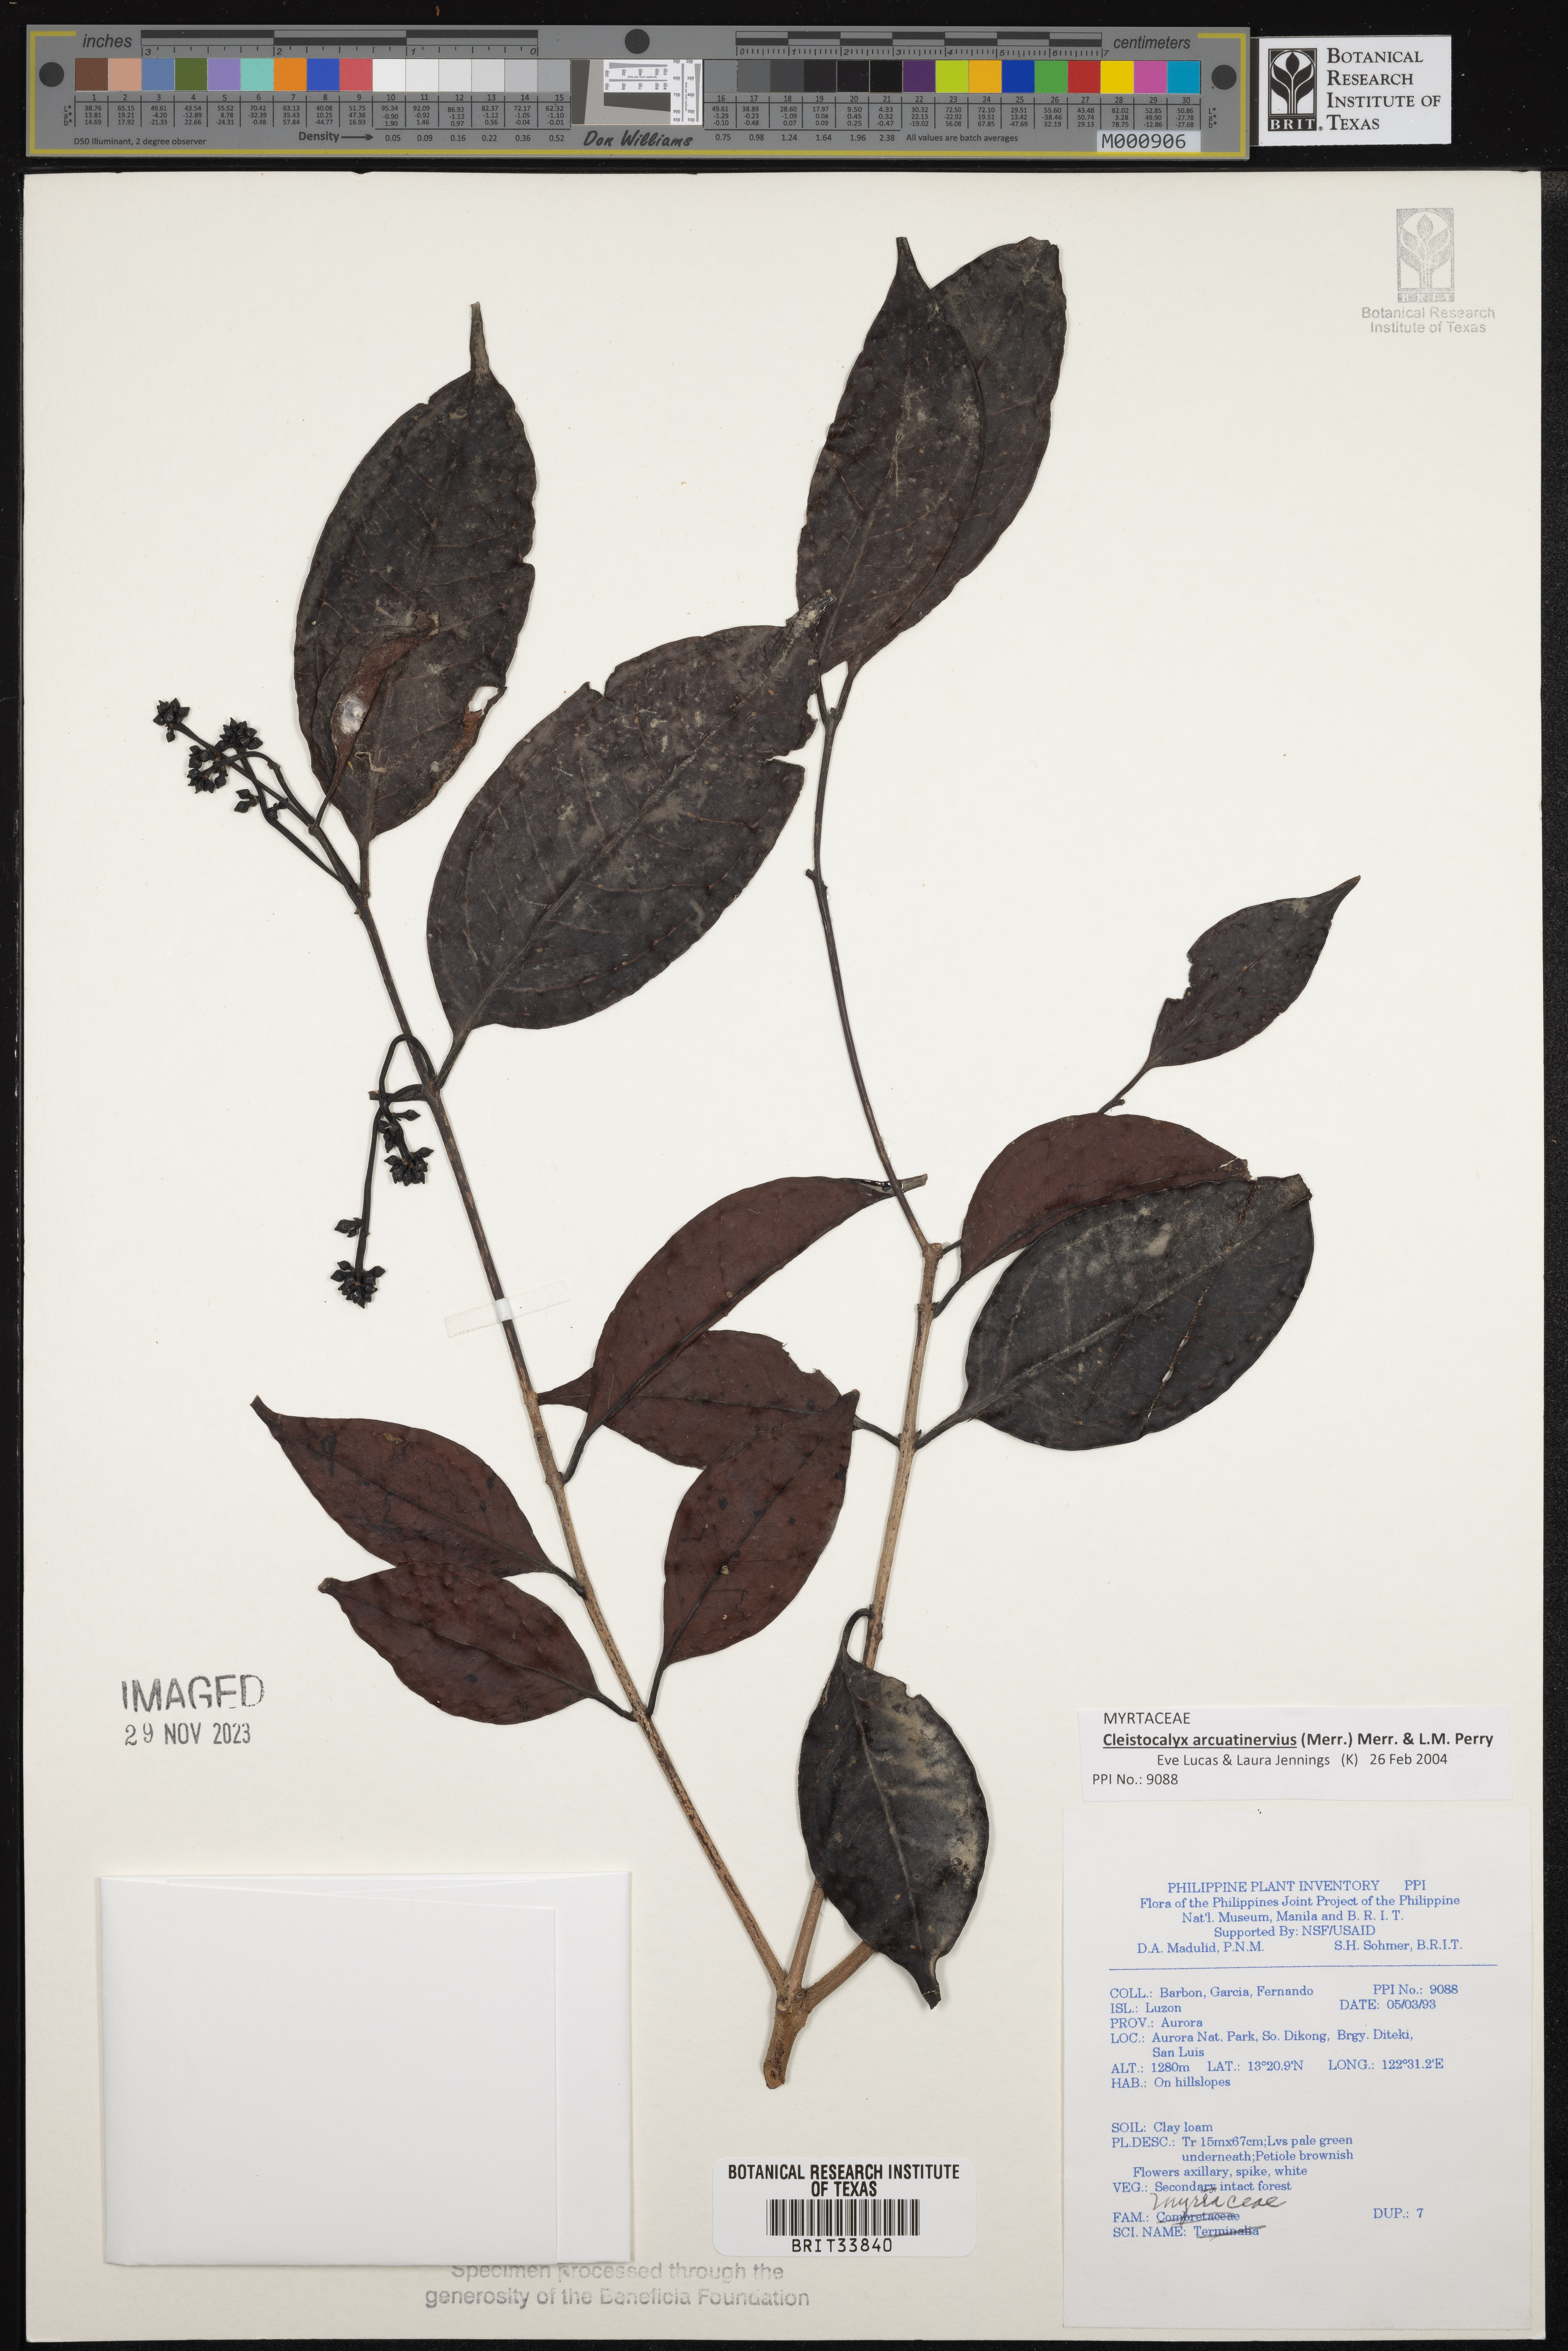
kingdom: Plantae
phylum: Tracheophyta
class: Magnoliopsida
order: Fagales
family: Myricaceae
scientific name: Myricaceae
